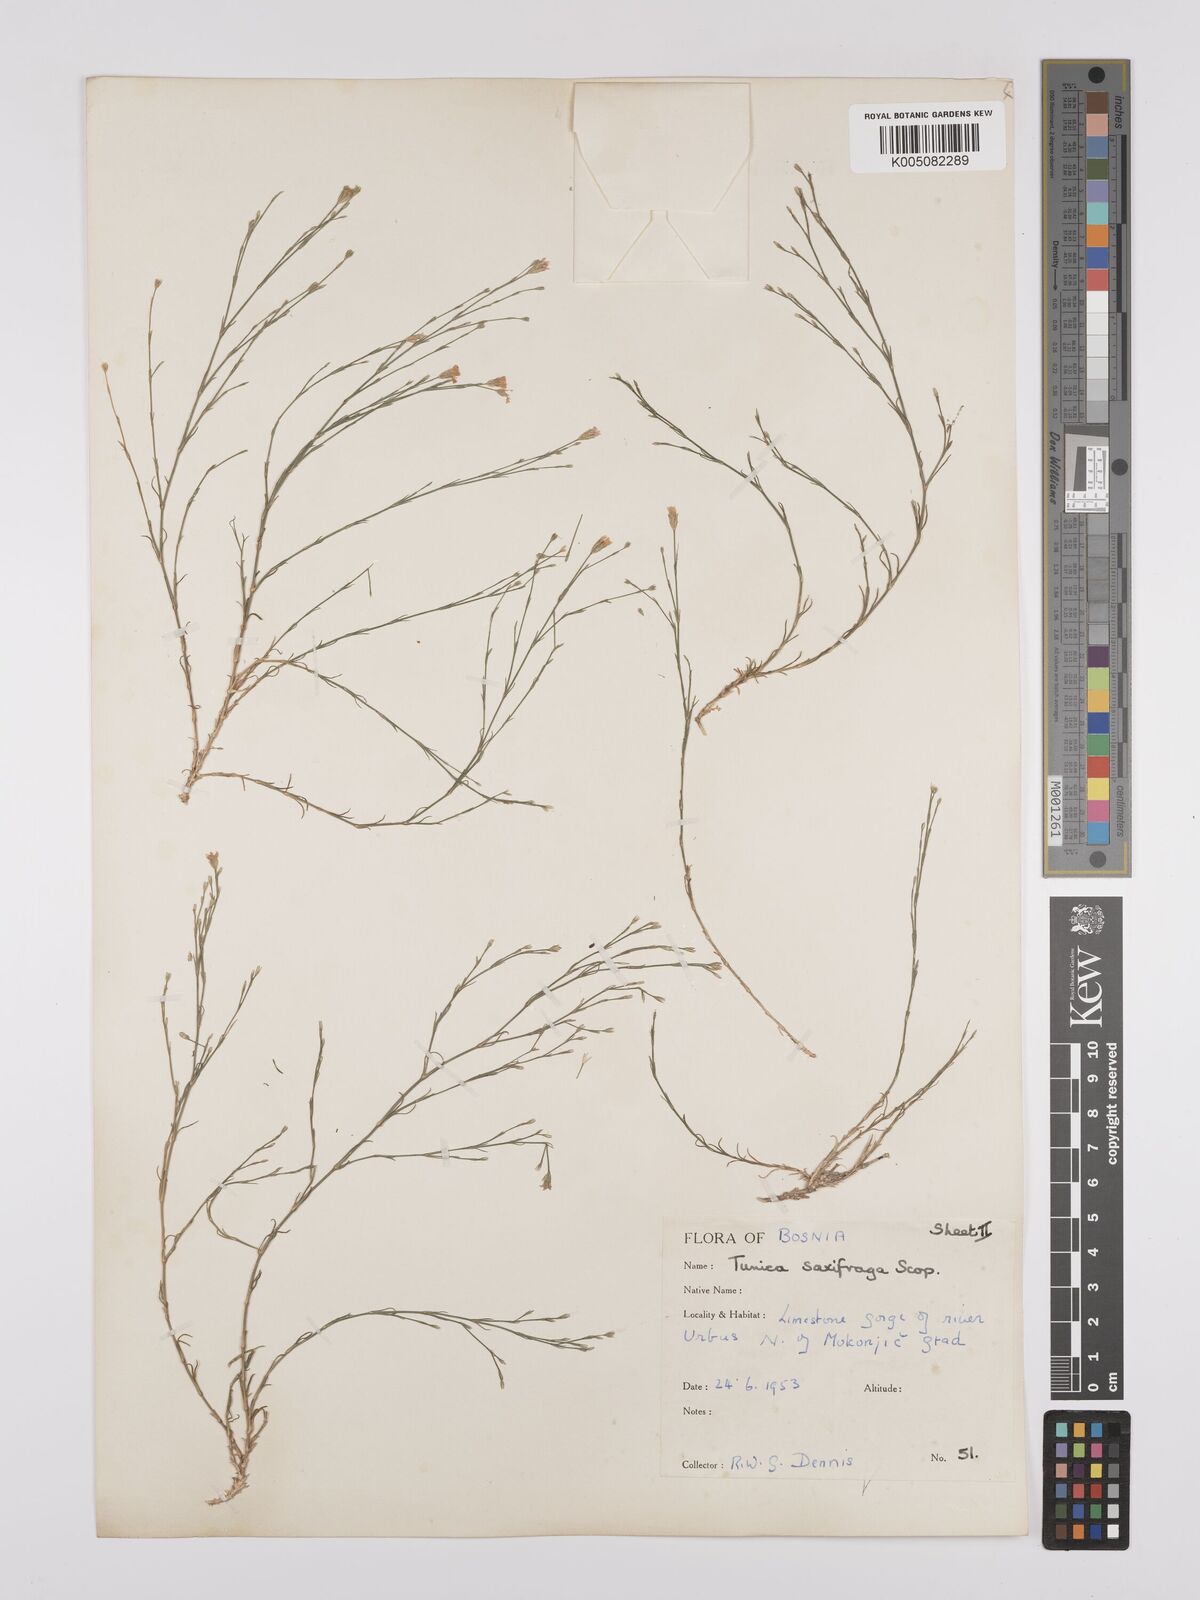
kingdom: Plantae
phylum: Tracheophyta
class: Magnoliopsida
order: Caryophyllales
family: Caryophyllaceae
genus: Petrorhagia
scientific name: Petrorhagia saxifraga
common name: Tunicflower
